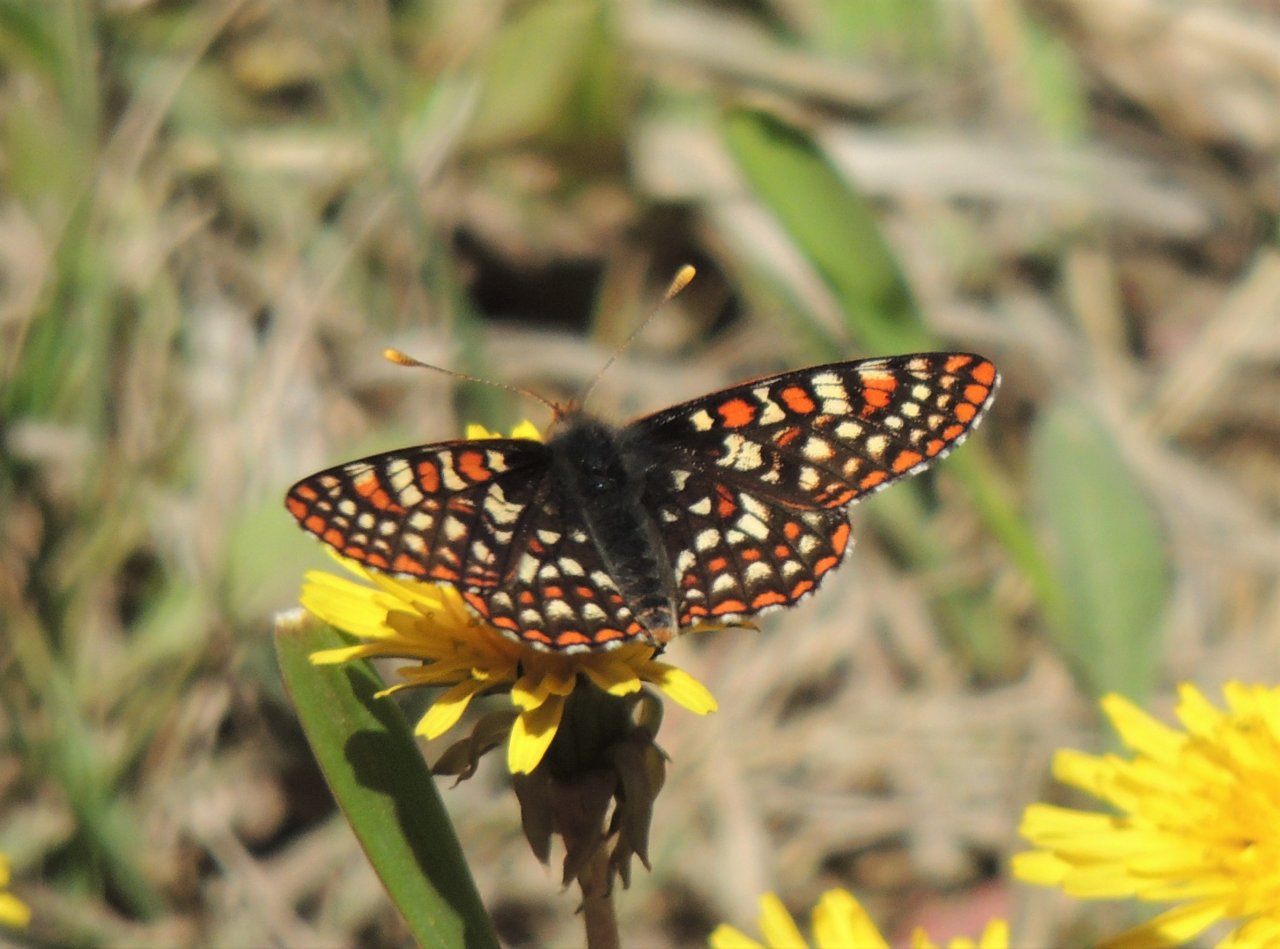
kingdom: Animalia
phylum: Arthropoda
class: Insecta
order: Lepidoptera
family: Nymphalidae
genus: Occidryas
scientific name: Occidryas anicia
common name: Anicia Checkerspot
